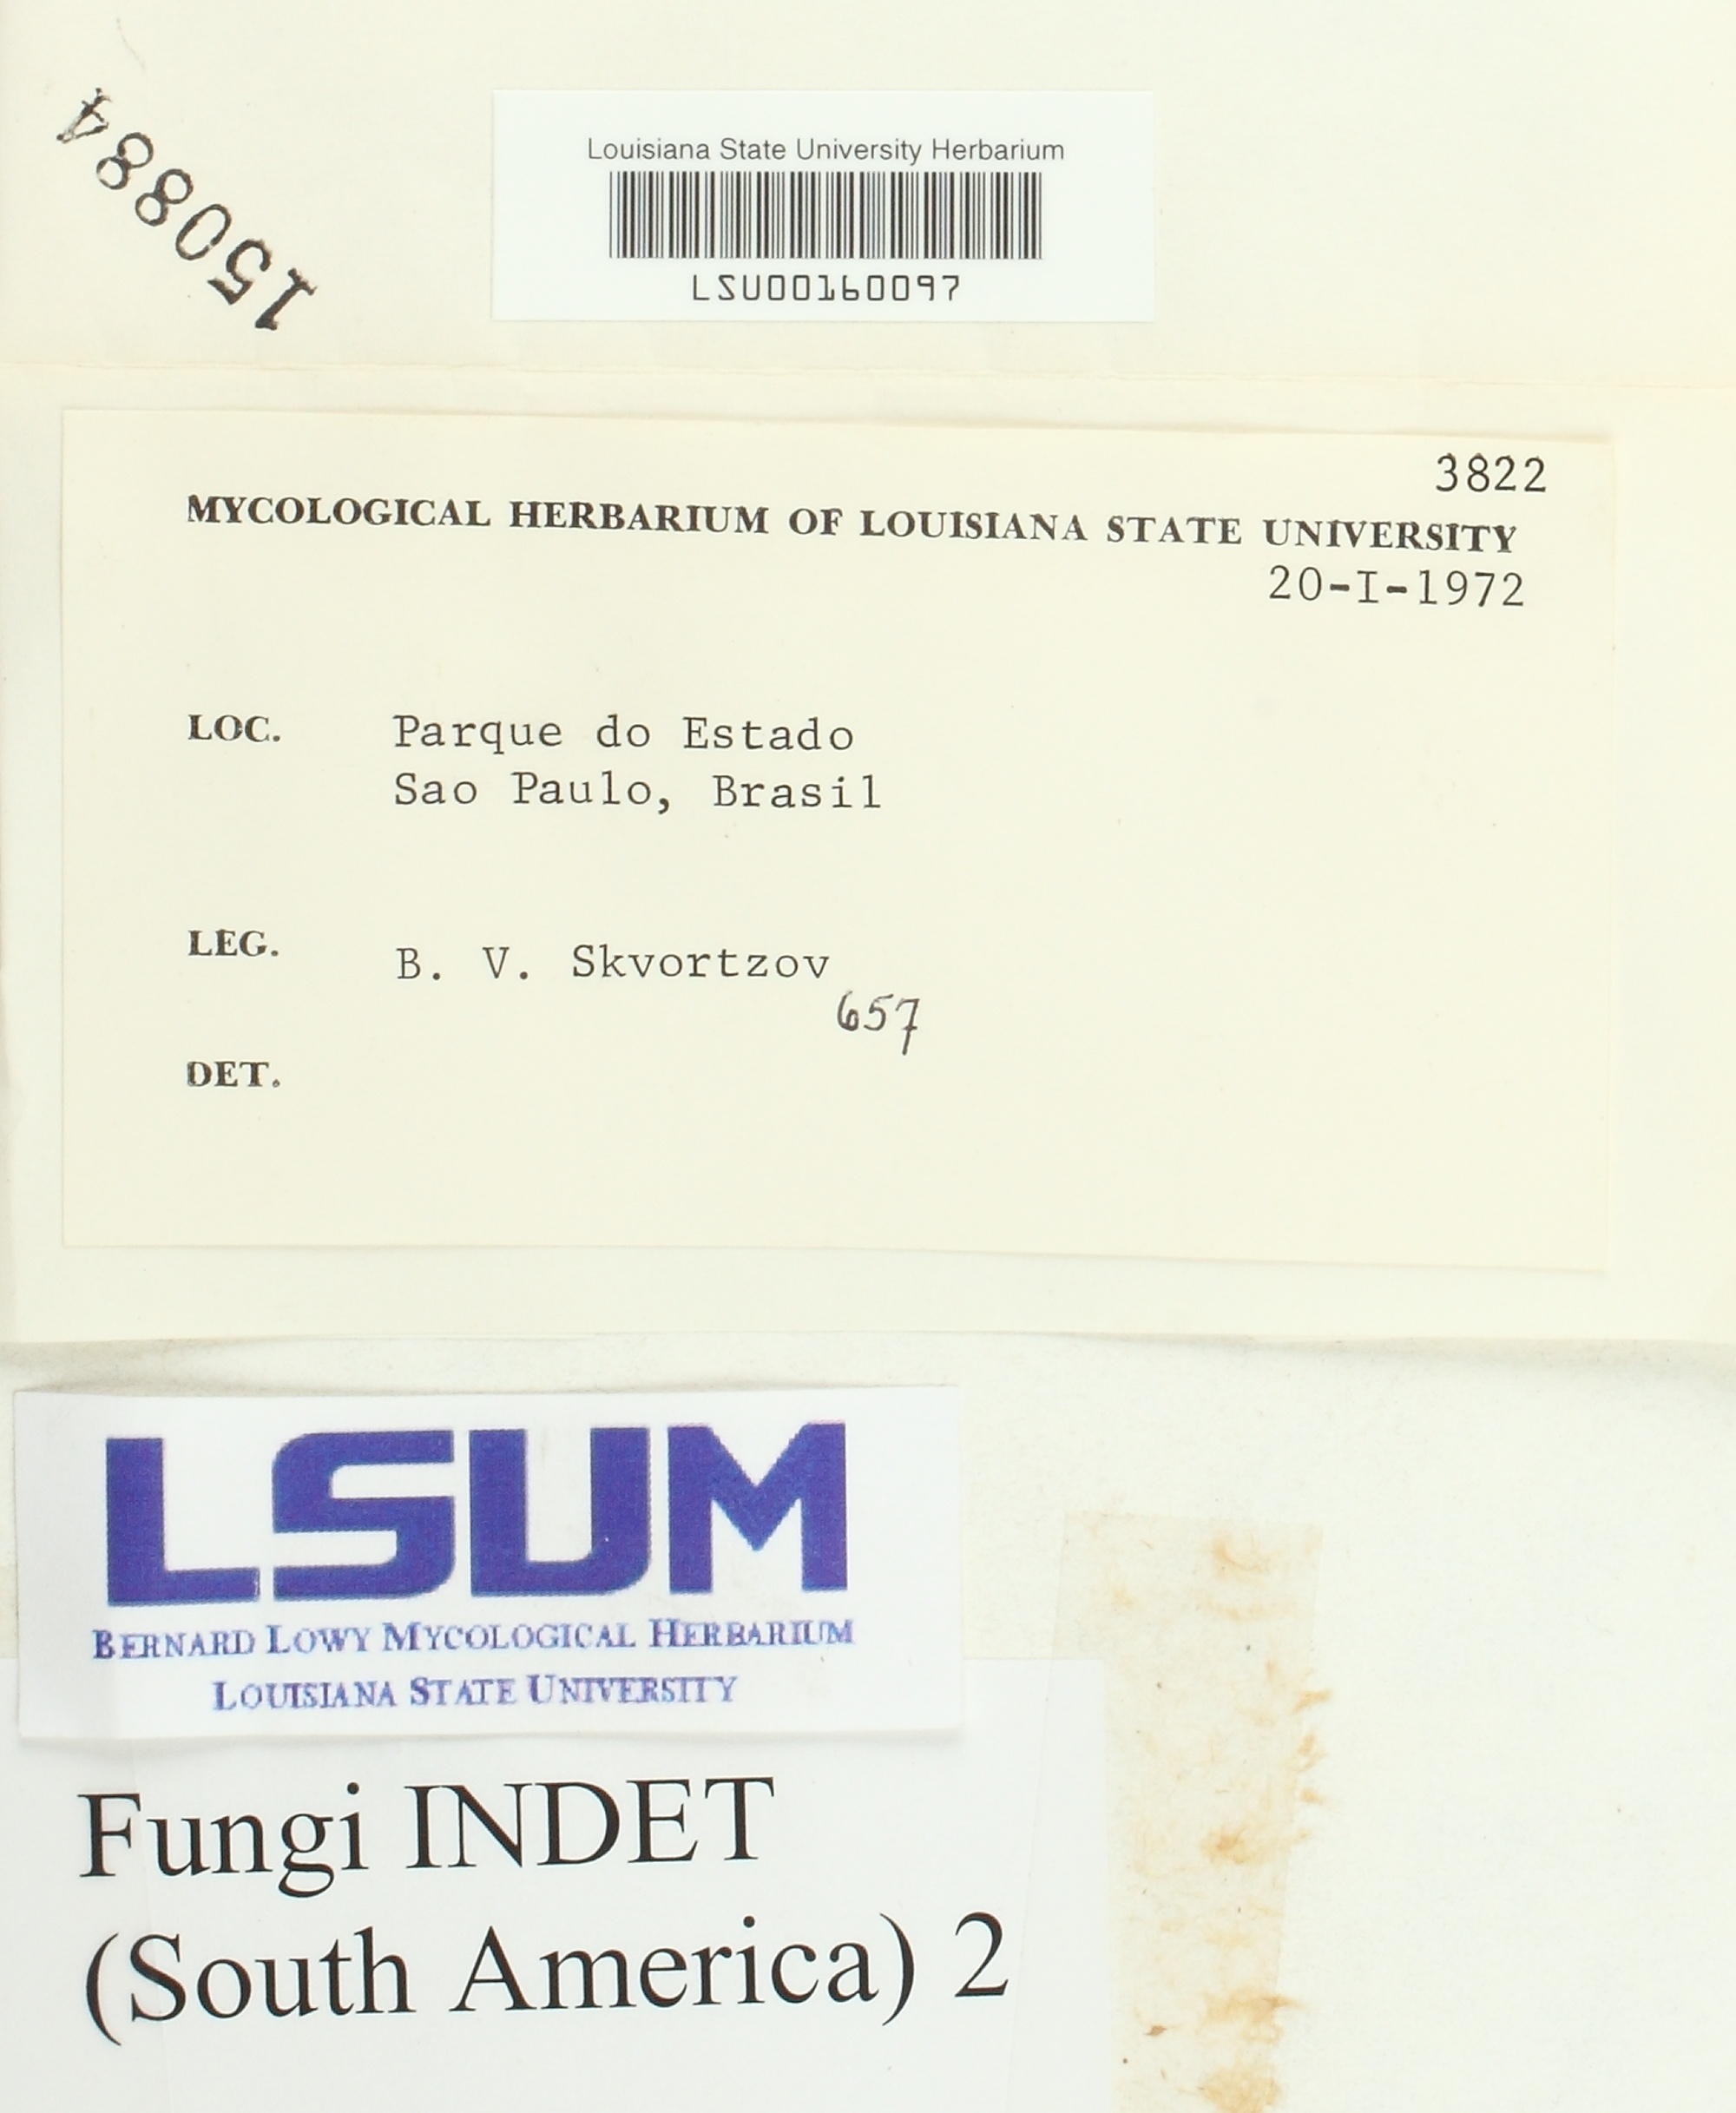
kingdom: Fungi
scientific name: Fungi
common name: Fungi
